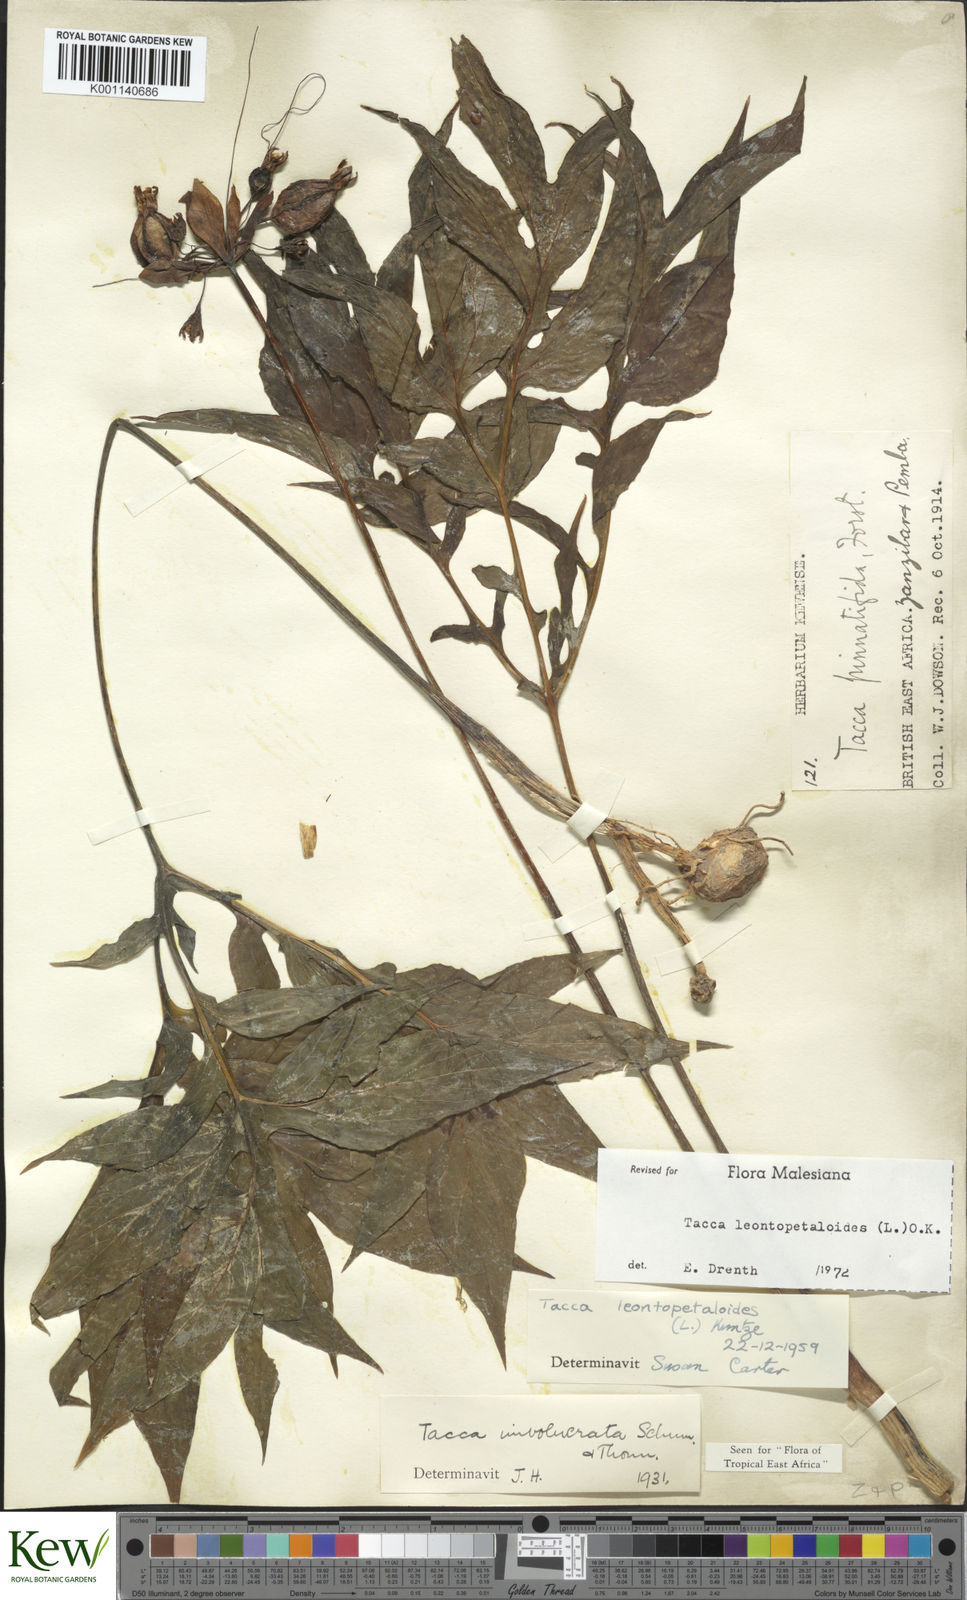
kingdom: Plantae
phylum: Tracheophyta
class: Liliopsida
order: Dioscoreales
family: Dioscoreaceae
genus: Tacca
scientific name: Tacca leontopetaloides
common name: Arrowroot
